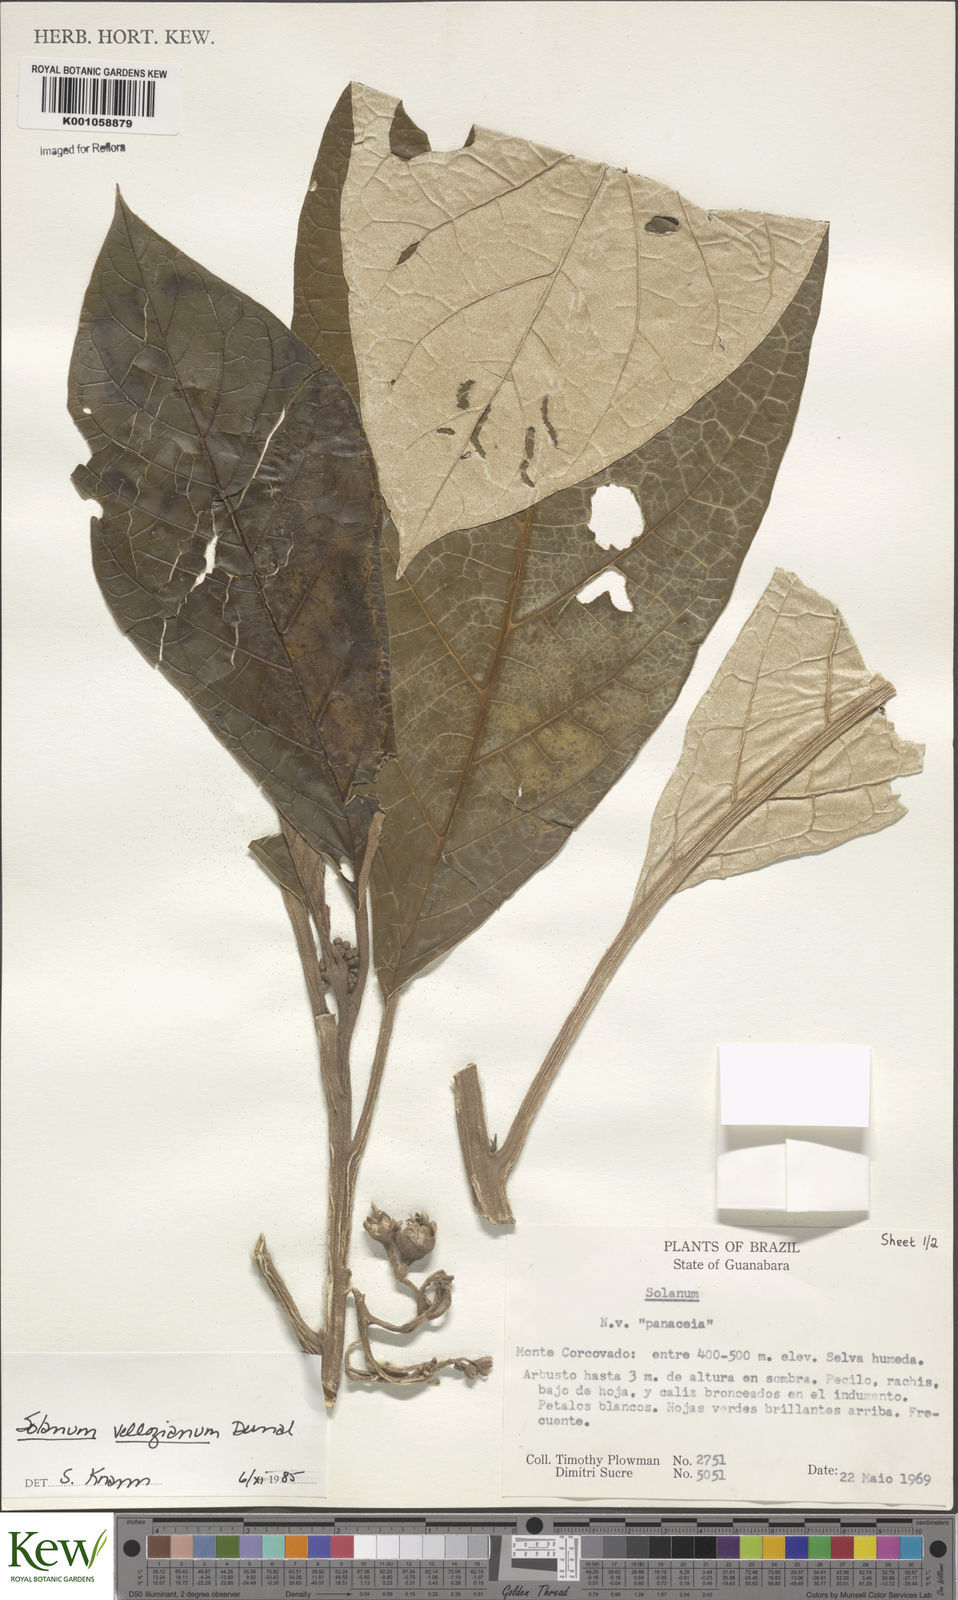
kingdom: Plantae
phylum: Tracheophyta
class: Magnoliopsida
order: Solanales
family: Solanaceae
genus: Solanum
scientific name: Solanum vellozianum
